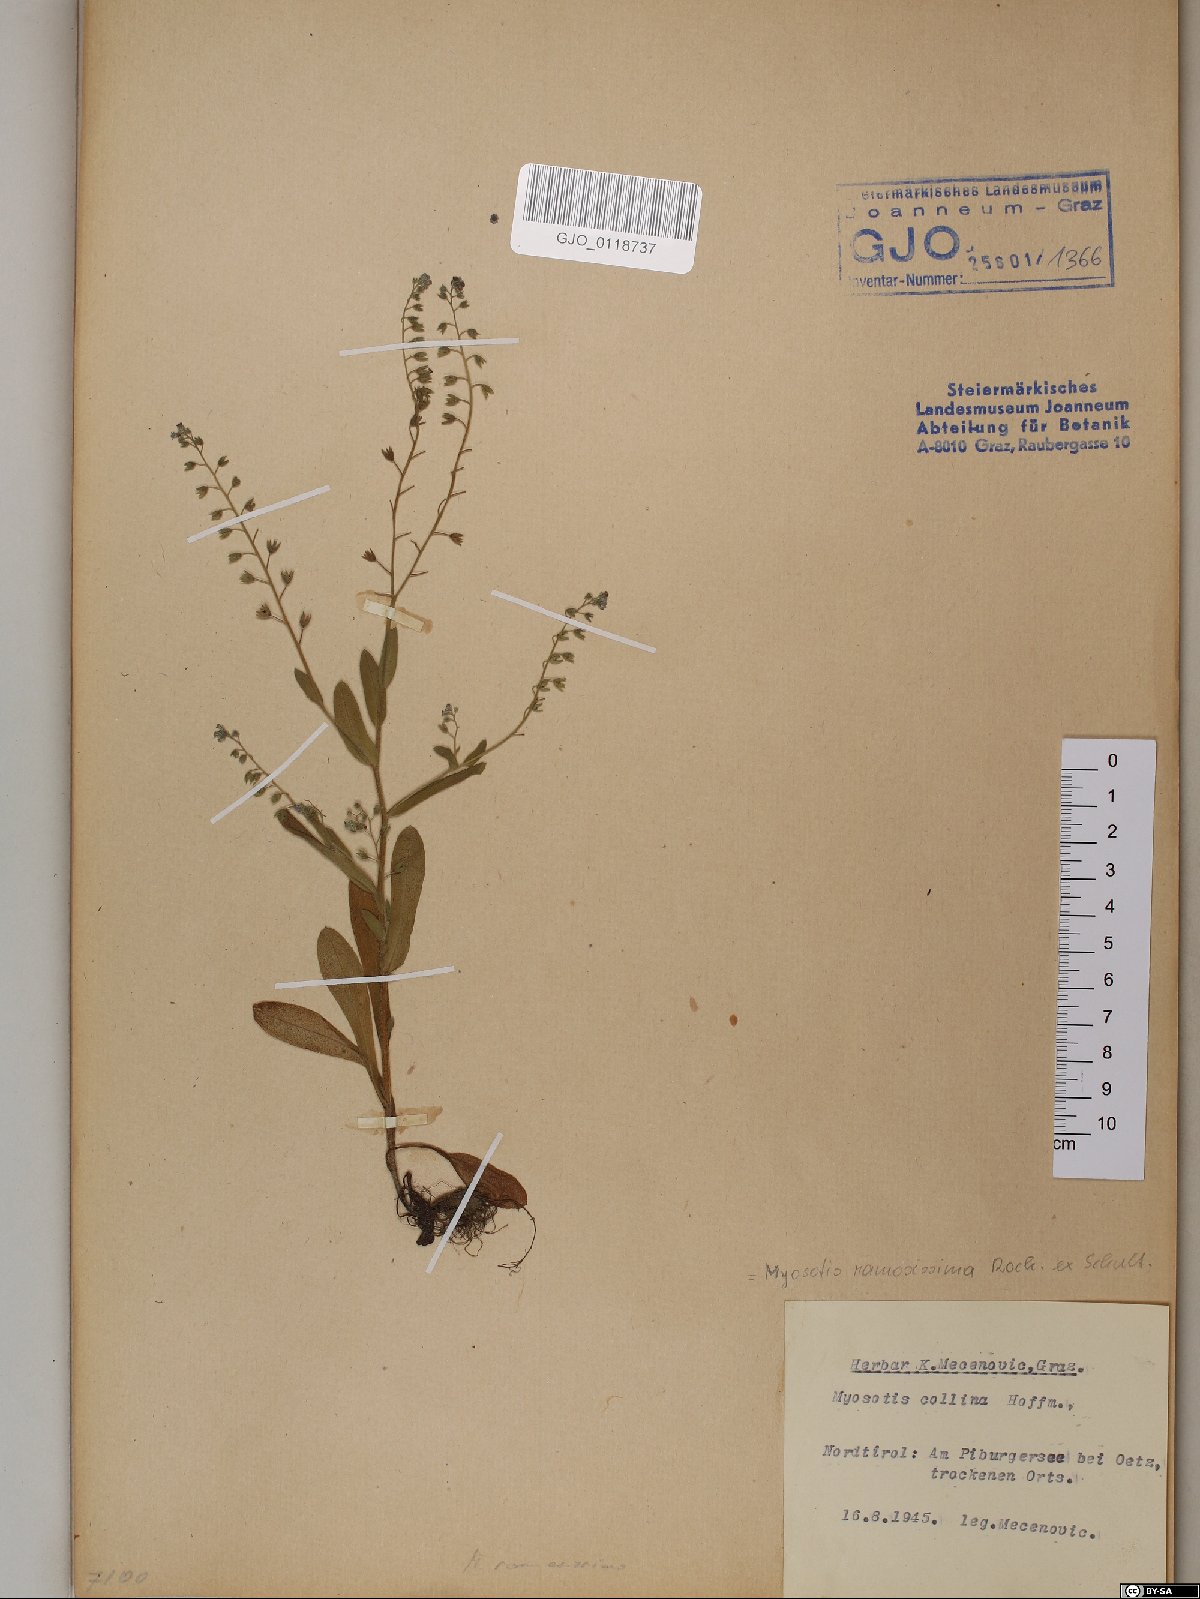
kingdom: Plantae
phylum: Tracheophyta
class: Magnoliopsida
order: Boraginales
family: Boraginaceae
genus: Myosotis
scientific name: Myosotis discolor
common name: Changing forget-me-not
